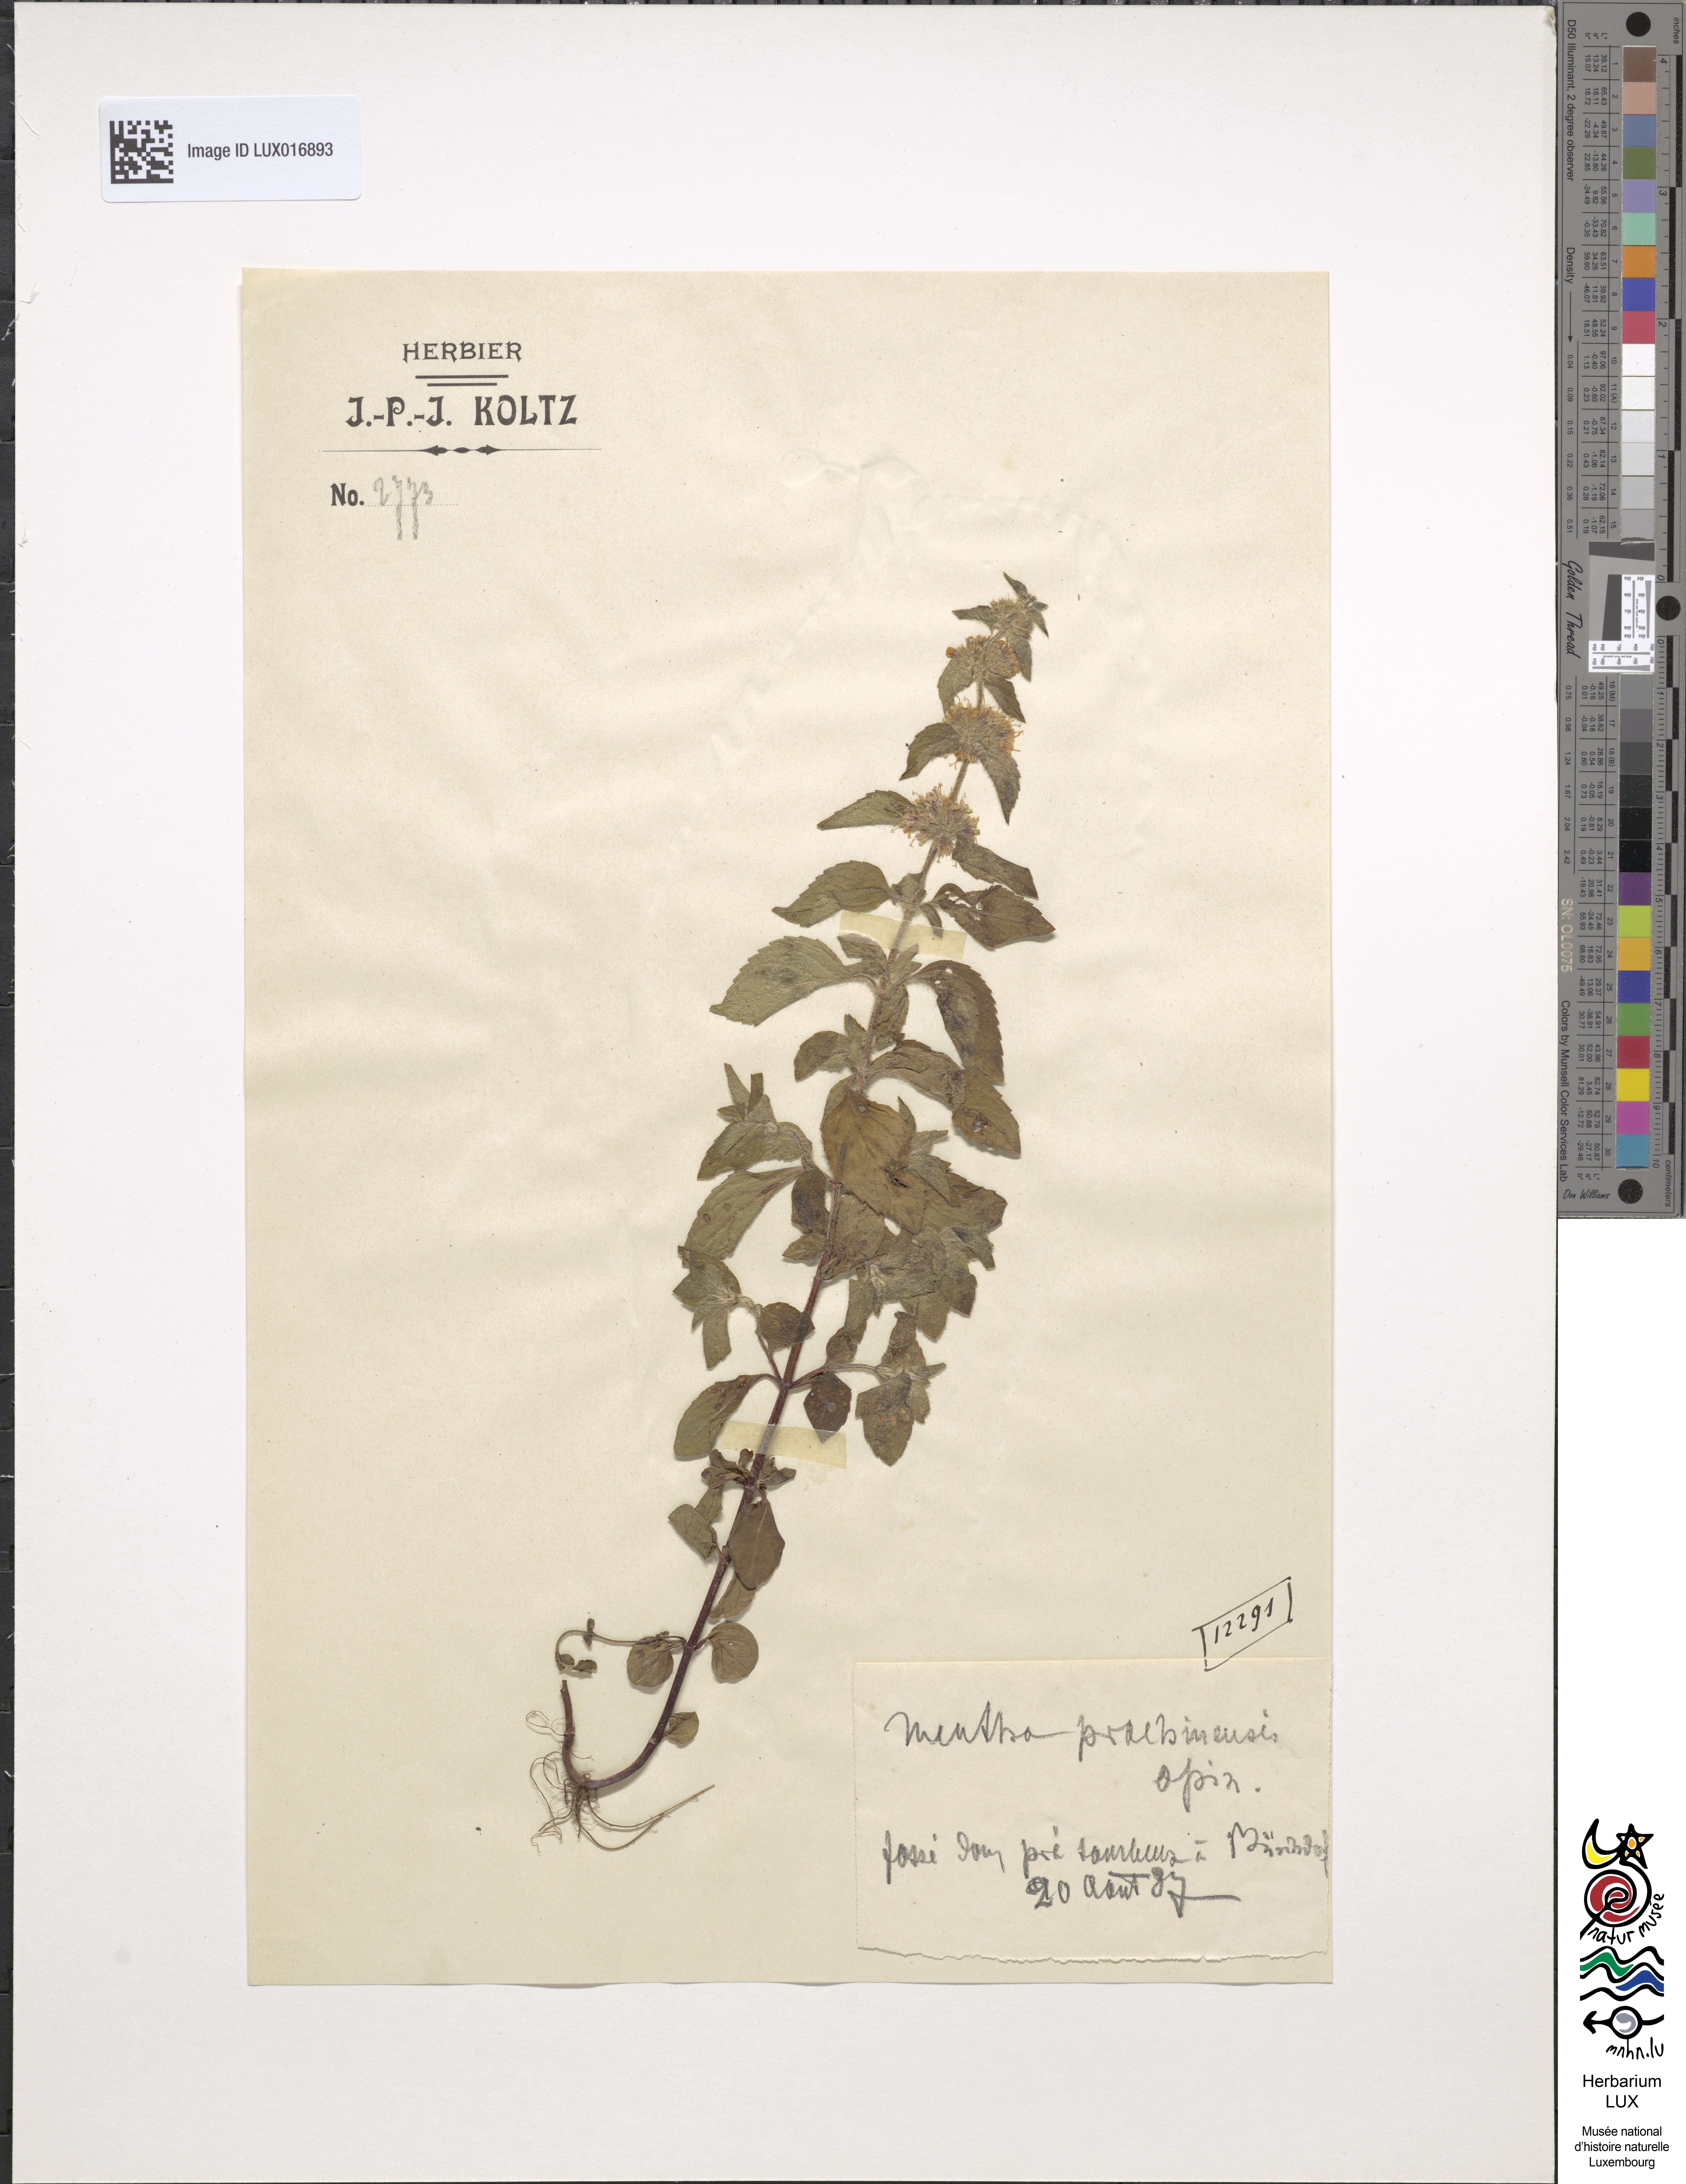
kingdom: Plantae
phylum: Tracheophyta
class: Magnoliopsida
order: Lamiales
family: Lamiaceae
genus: Mentha
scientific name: Mentha verticillata
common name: Mint
